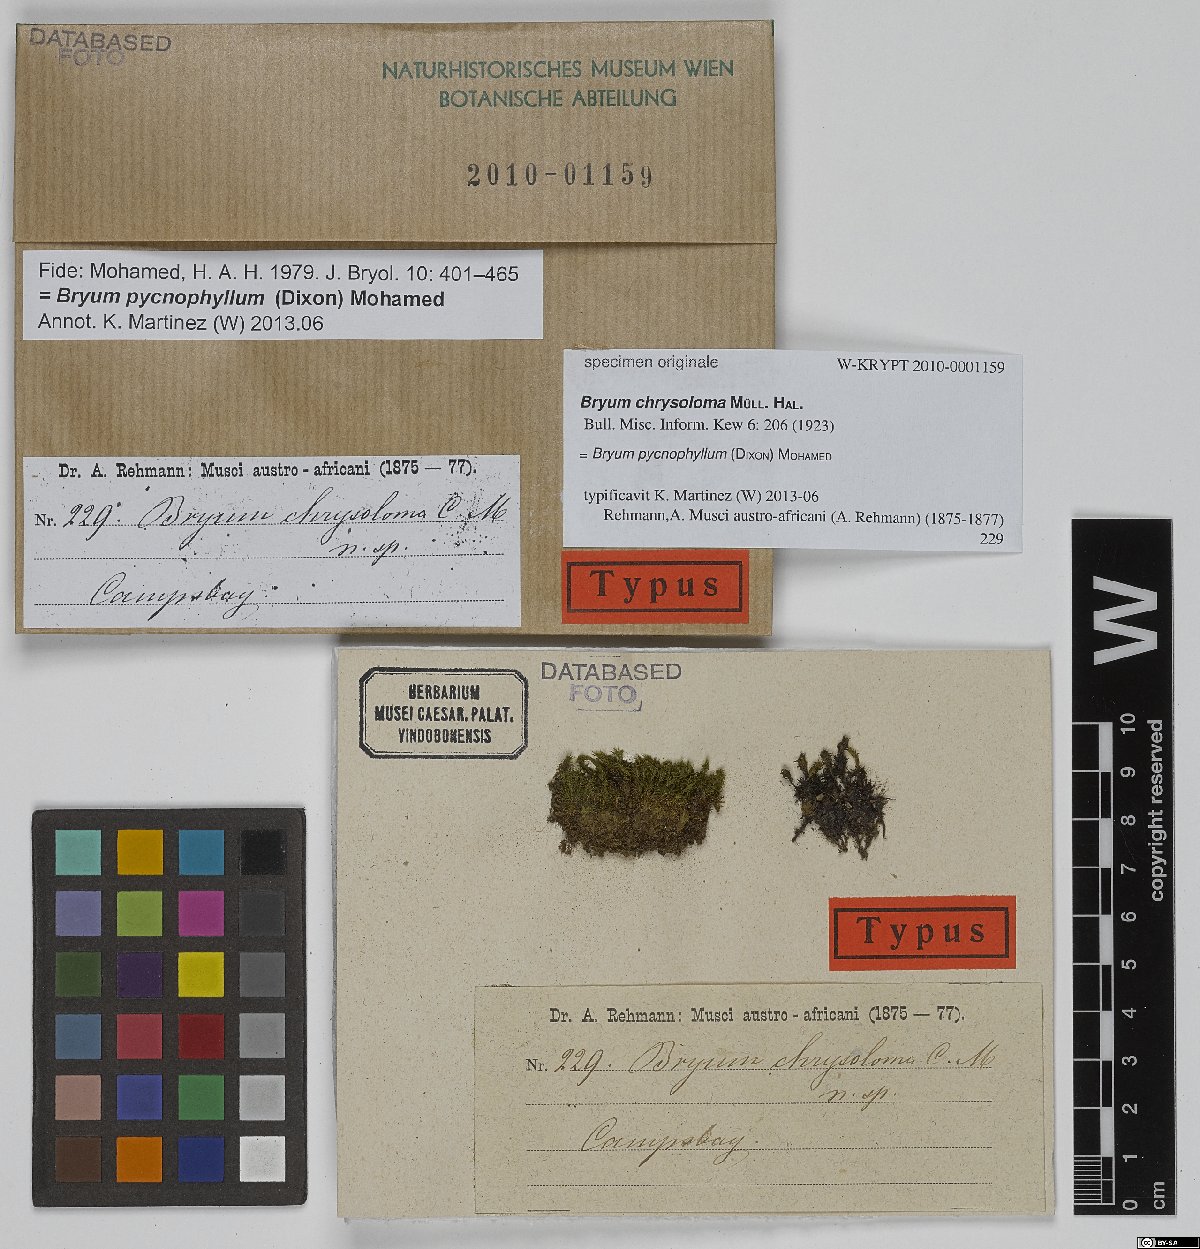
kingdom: Plantae
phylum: Bryophyta
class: Bryopsida
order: Bryales
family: Bryaceae
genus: Rosulabryum
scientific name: Rosulabryum billarderii
